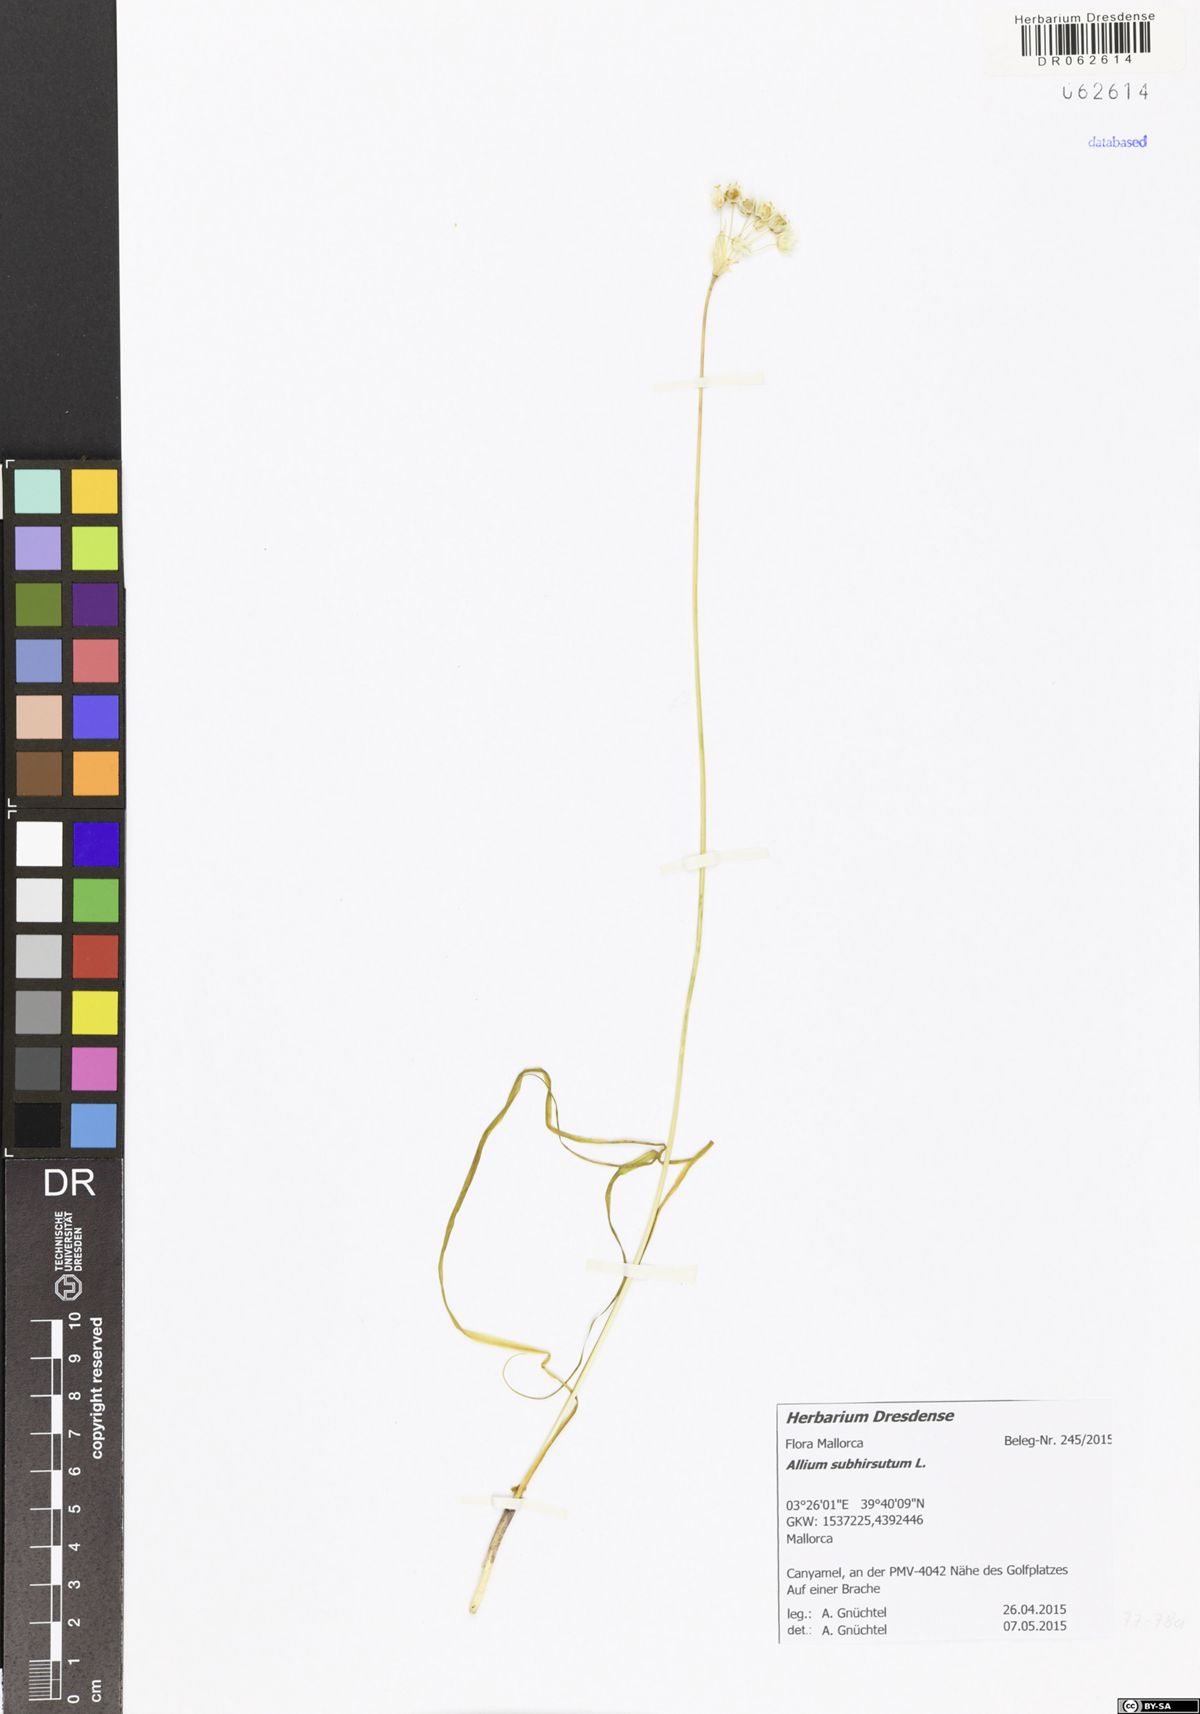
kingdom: Plantae
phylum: Tracheophyta
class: Liliopsida
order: Asparagales
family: Amaryllidaceae
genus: Allium
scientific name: Allium subhirsutum
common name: Hairy garlic
